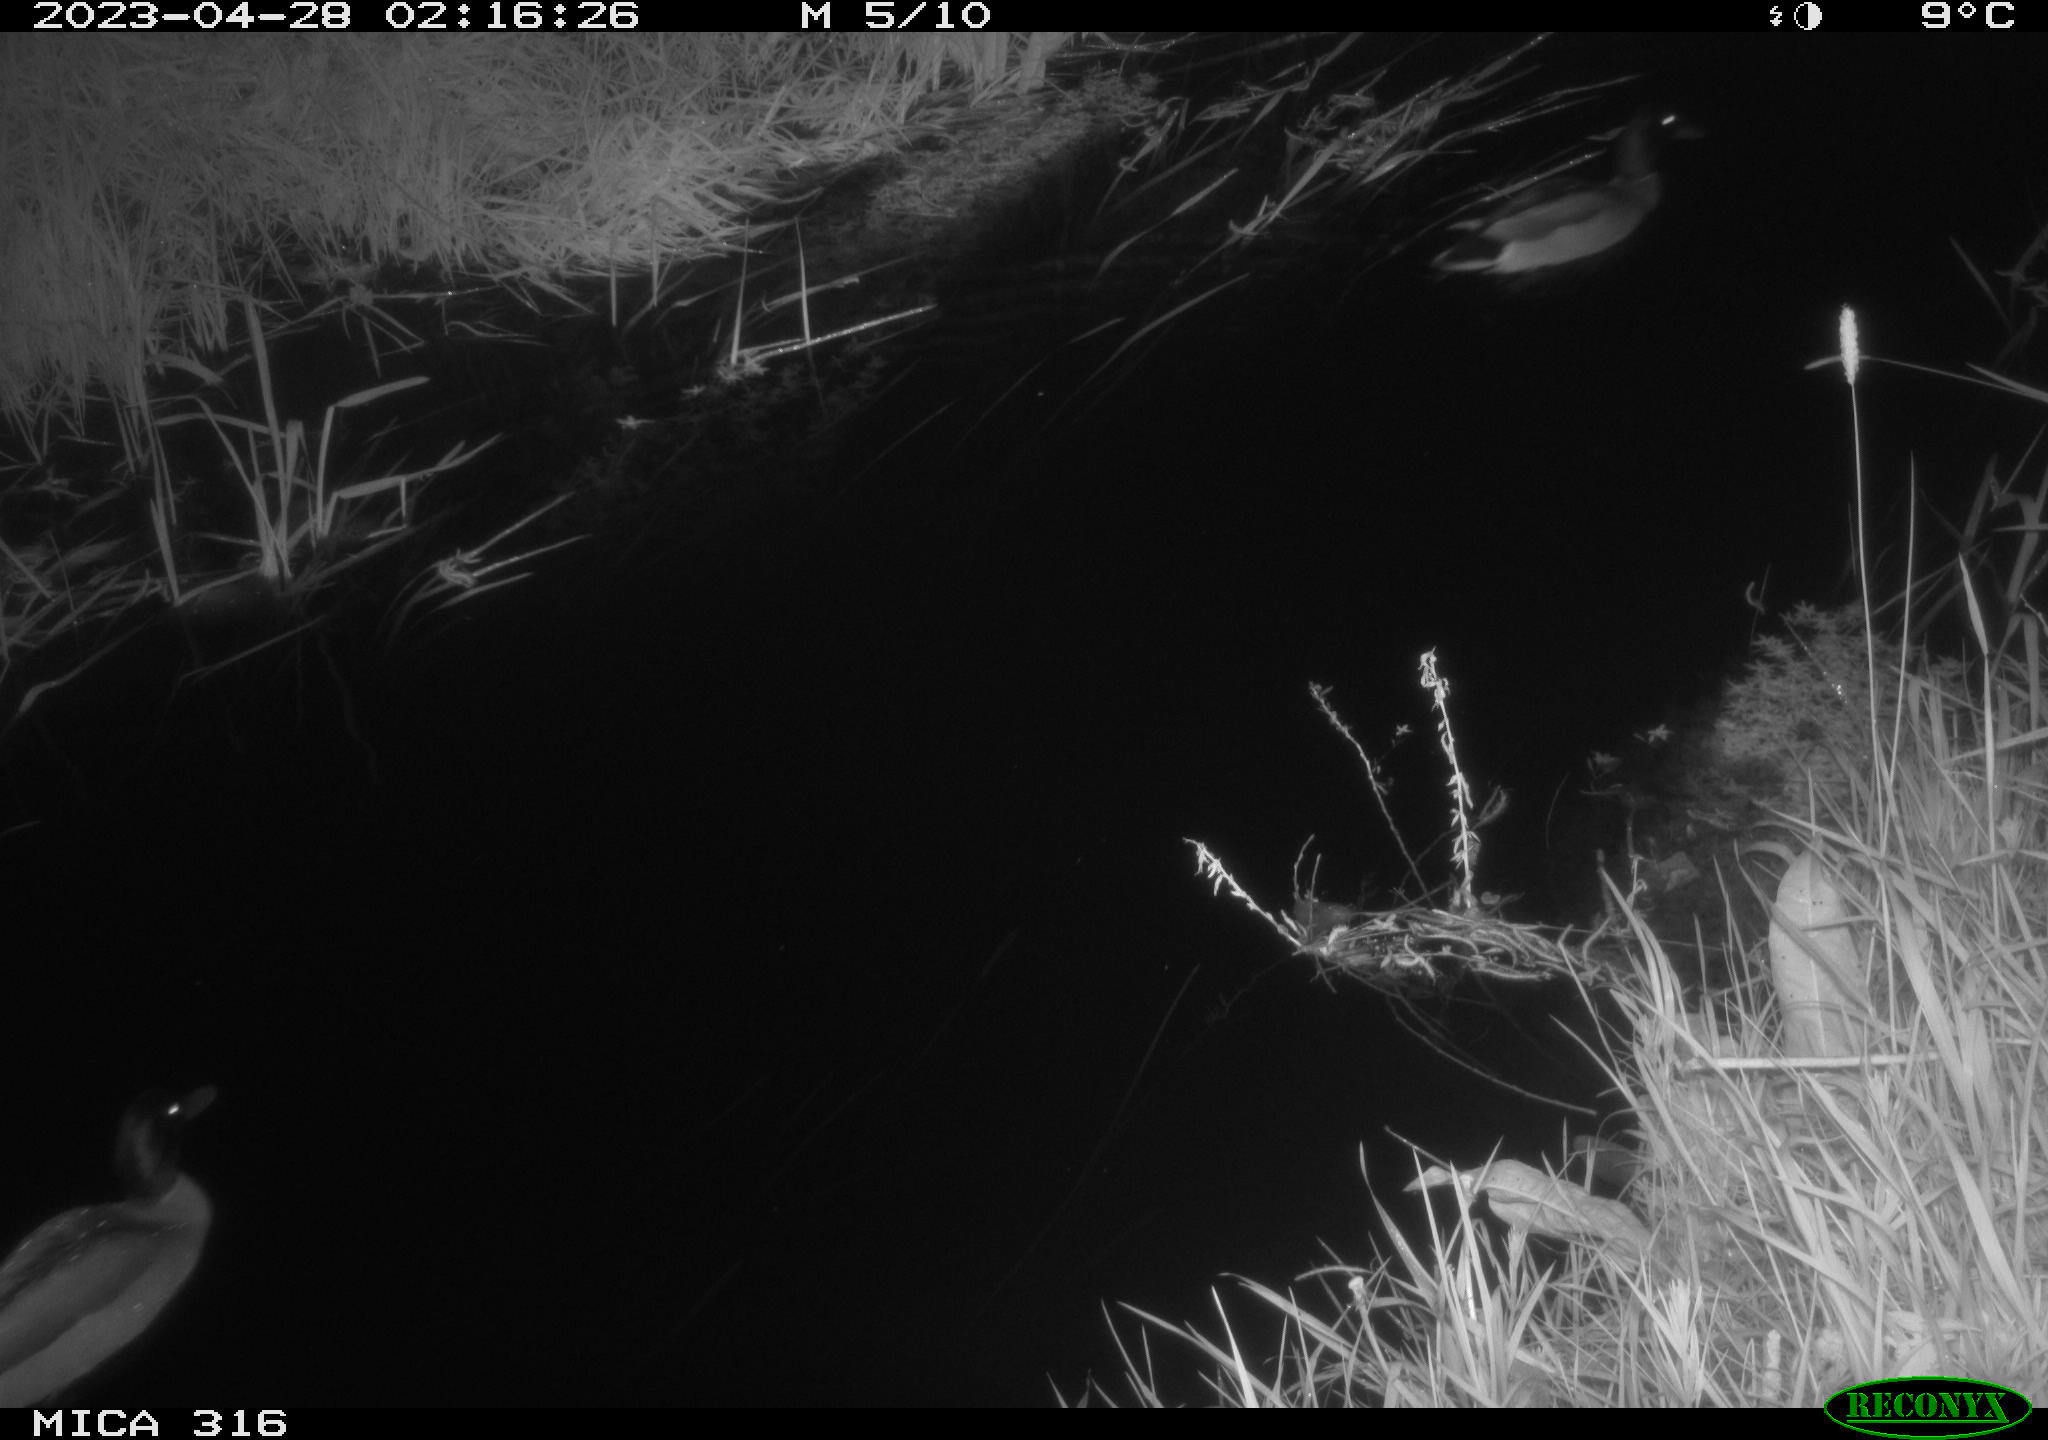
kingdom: Animalia
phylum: Chordata
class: Aves
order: Anseriformes
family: Anatidae
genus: Anas
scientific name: Anas
